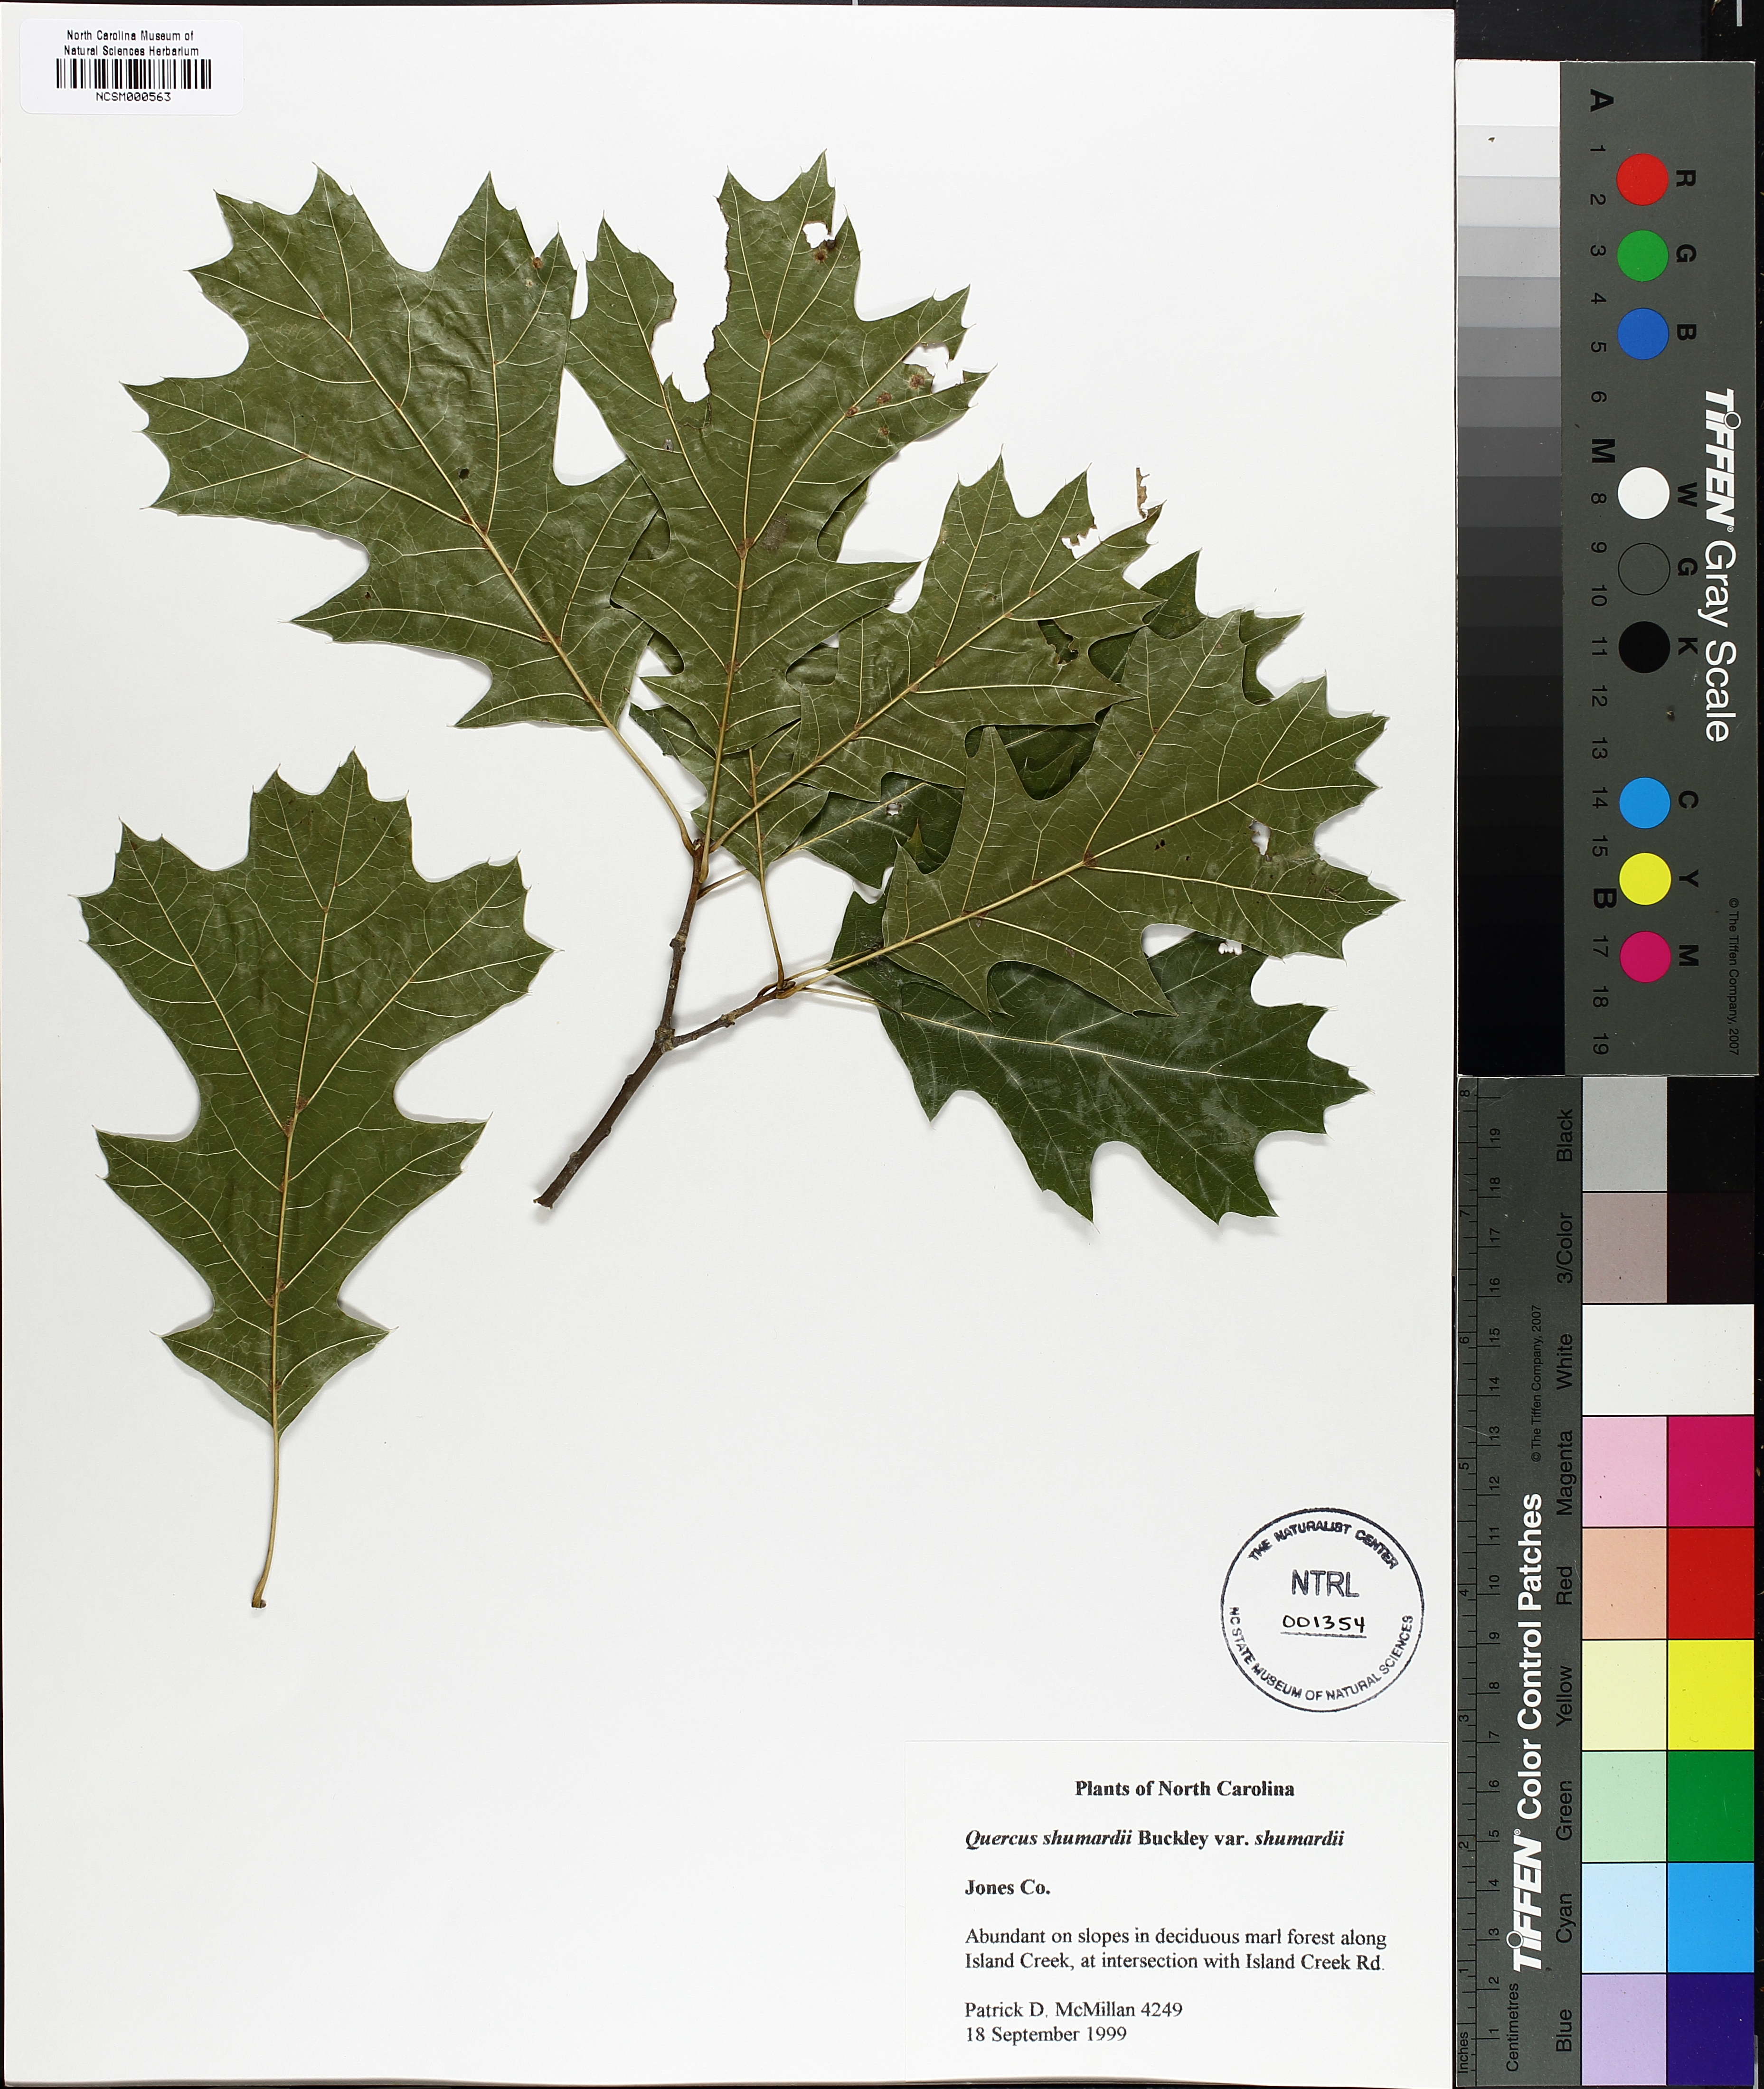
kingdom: Plantae
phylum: Tracheophyta
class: Magnoliopsida
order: Fagales
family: Fagaceae
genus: Quercus
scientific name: Quercus shumardii
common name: Shumard oak
